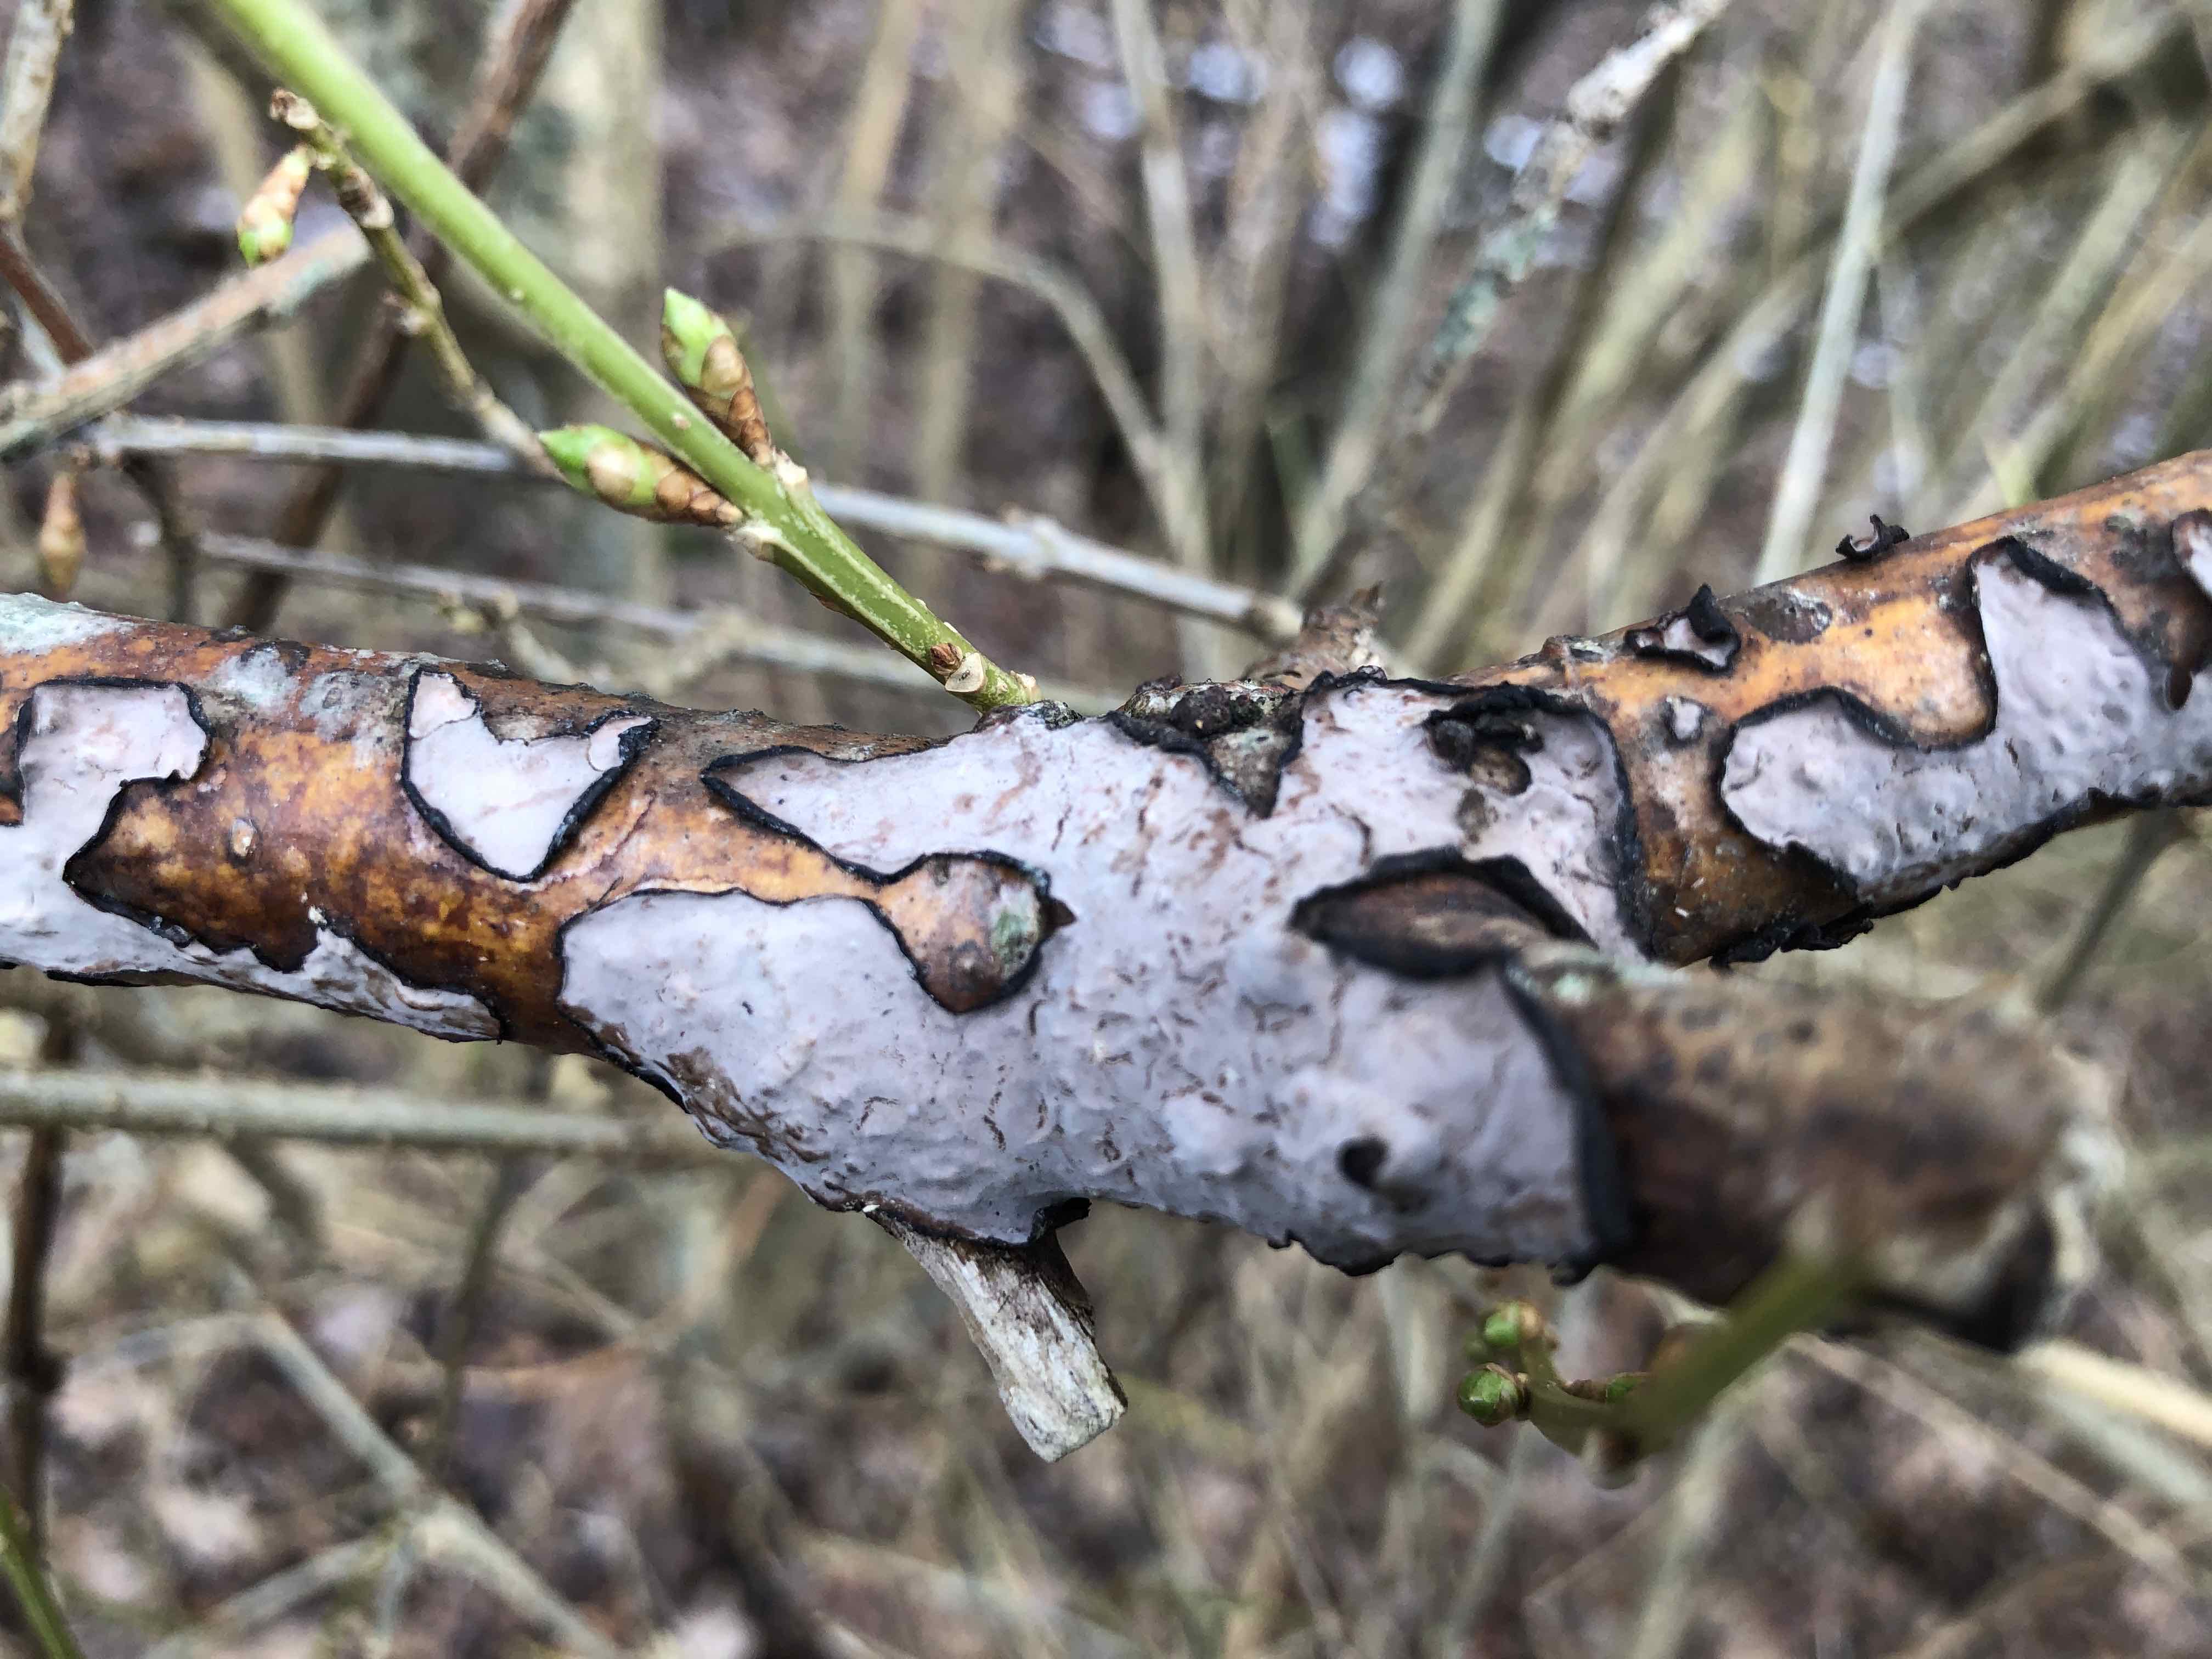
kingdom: Fungi
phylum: Basidiomycota
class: Agaricomycetes
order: Russulales
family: Peniophoraceae
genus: Peniophora
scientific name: Peniophora quercina
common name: ege-voksskind
